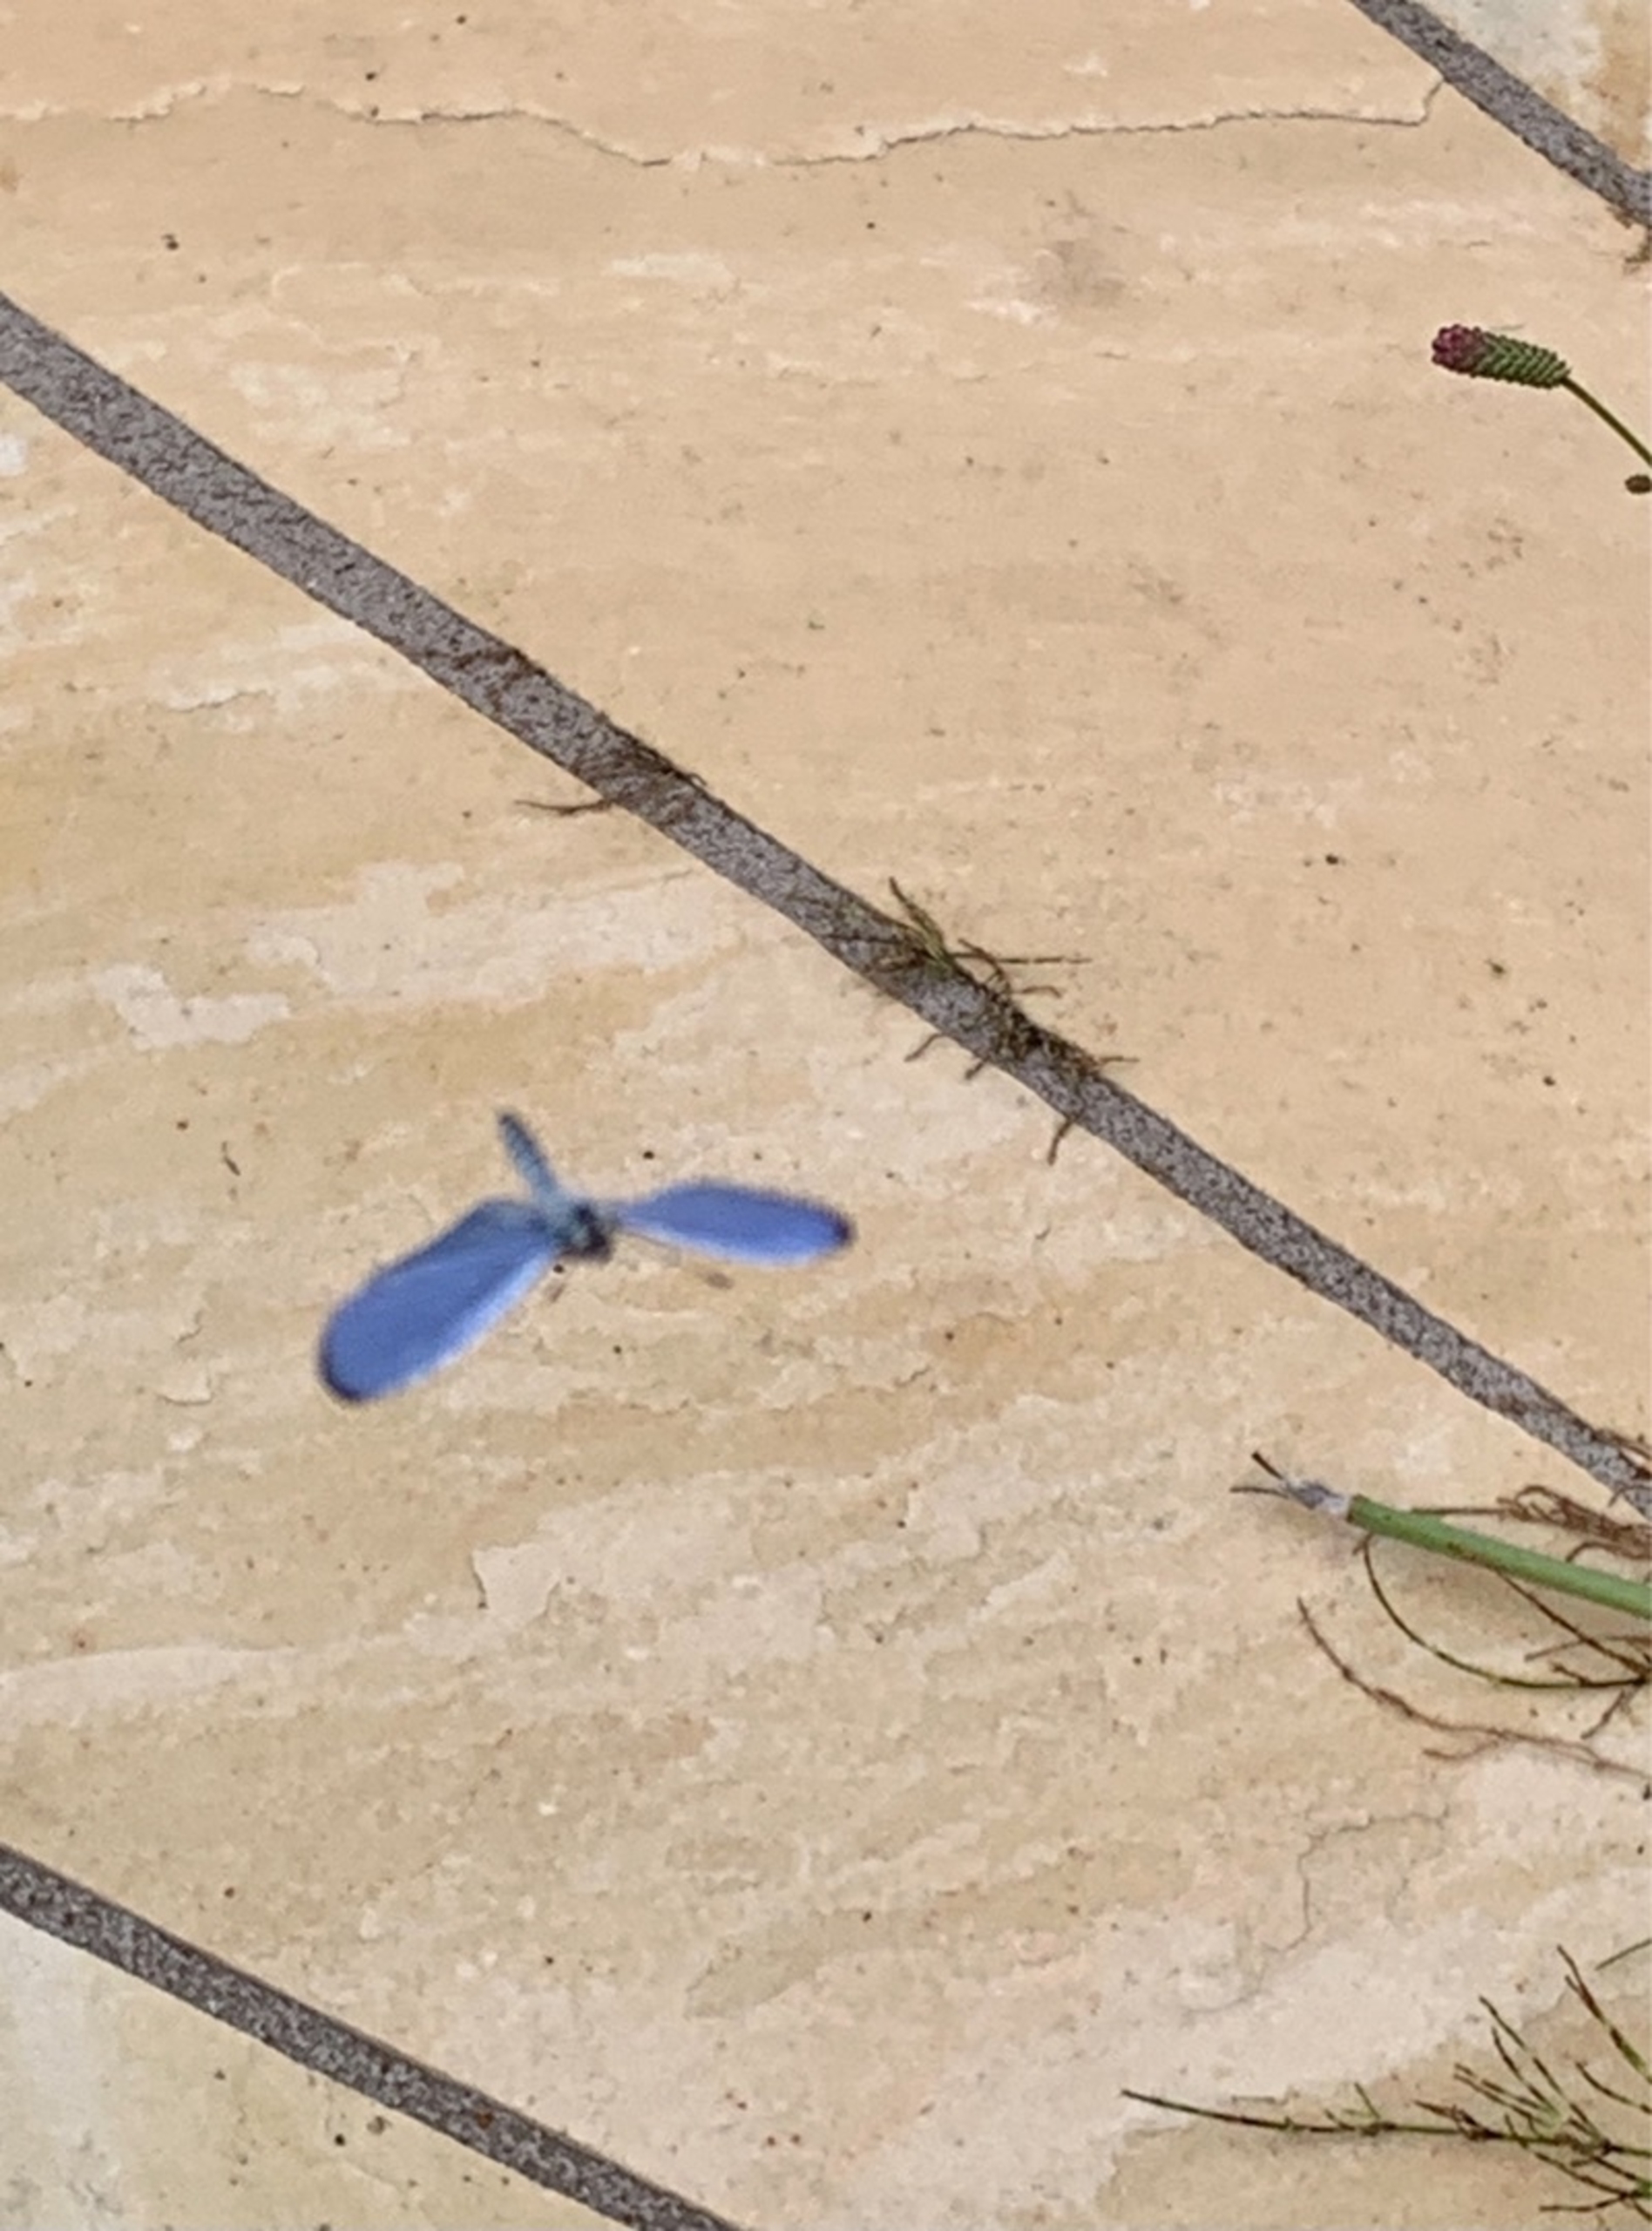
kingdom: Animalia
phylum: Arthropoda
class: Insecta
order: Lepidoptera
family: Lycaenidae
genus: Celastrina
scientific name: Celastrina argiolus
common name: Skovblåfugl
